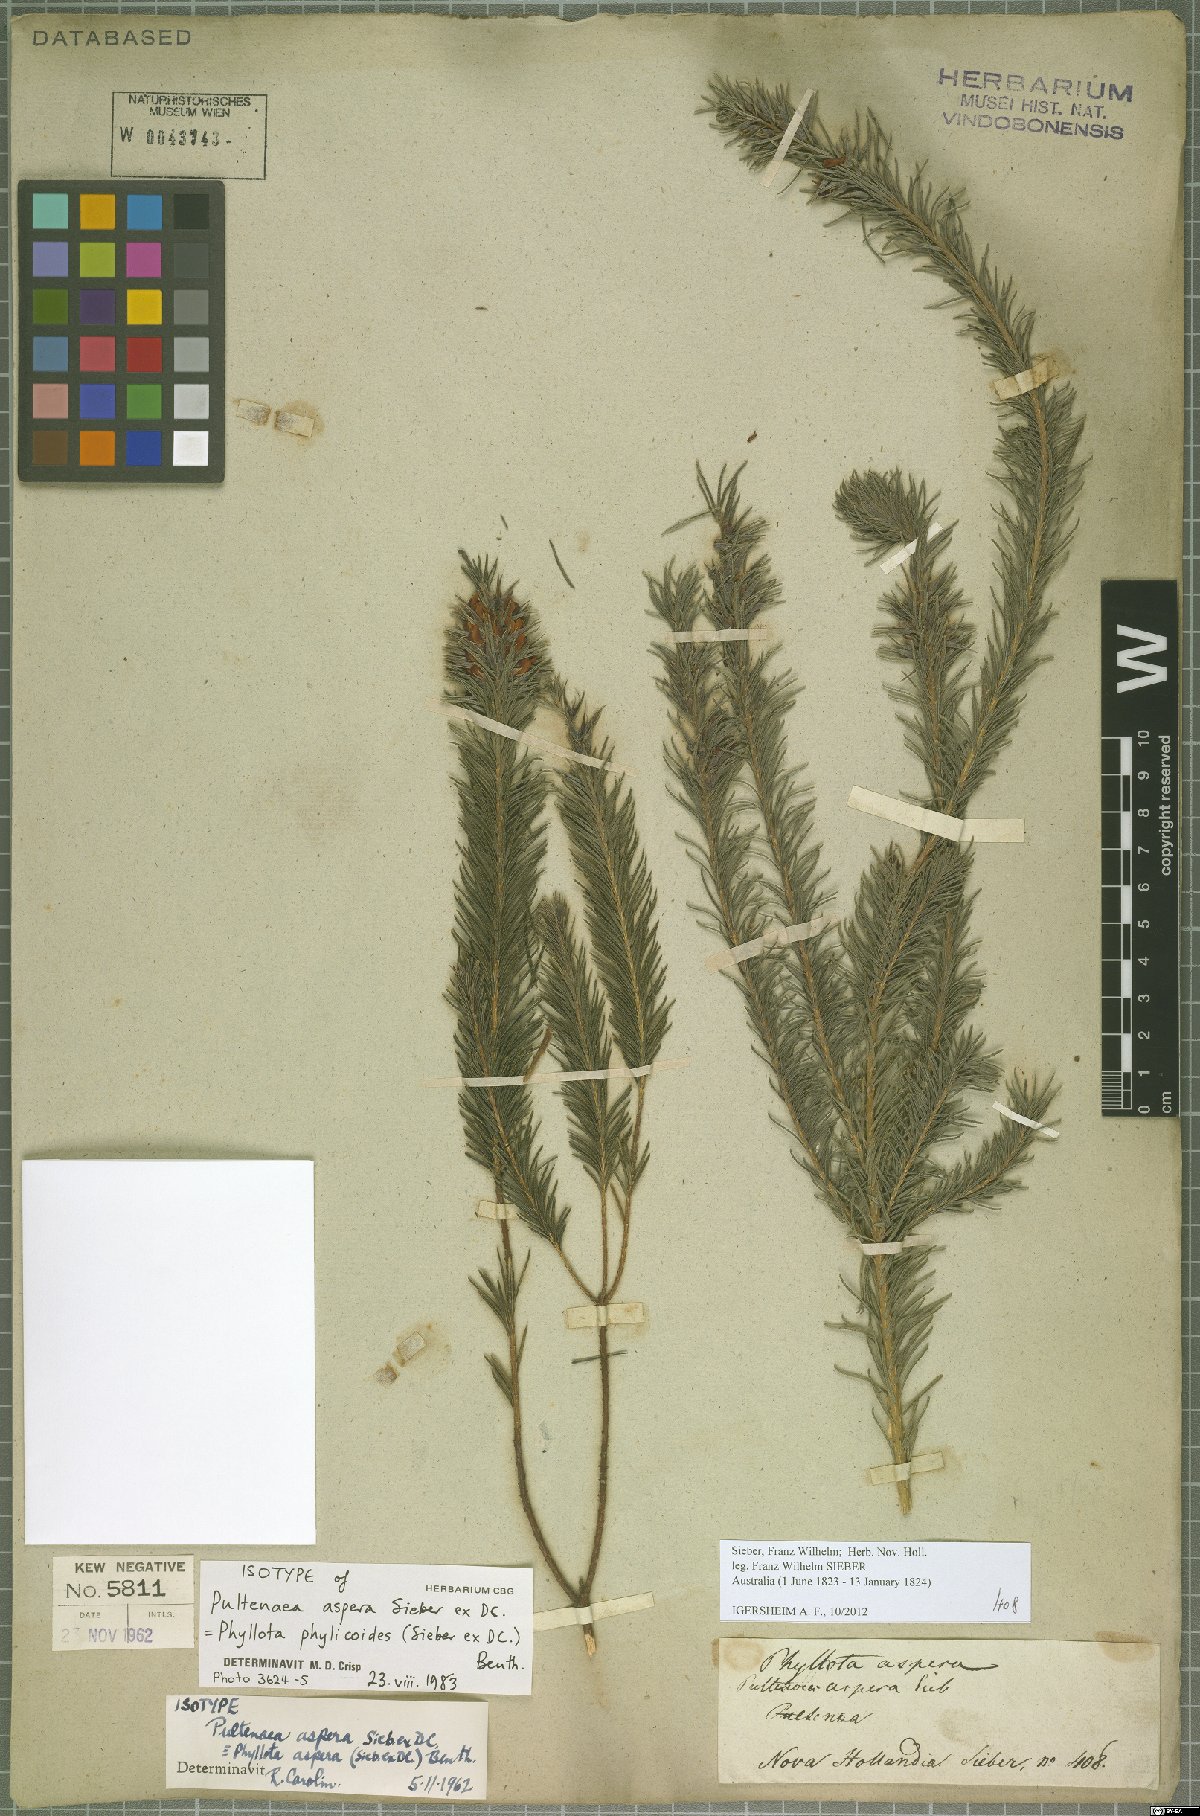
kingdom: Plantae
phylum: Tracheophyta
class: Magnoliopsida
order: Fabales
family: Fabaceae
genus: Phyllota
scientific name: Phyllota phylicoides
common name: Heath phyllota
